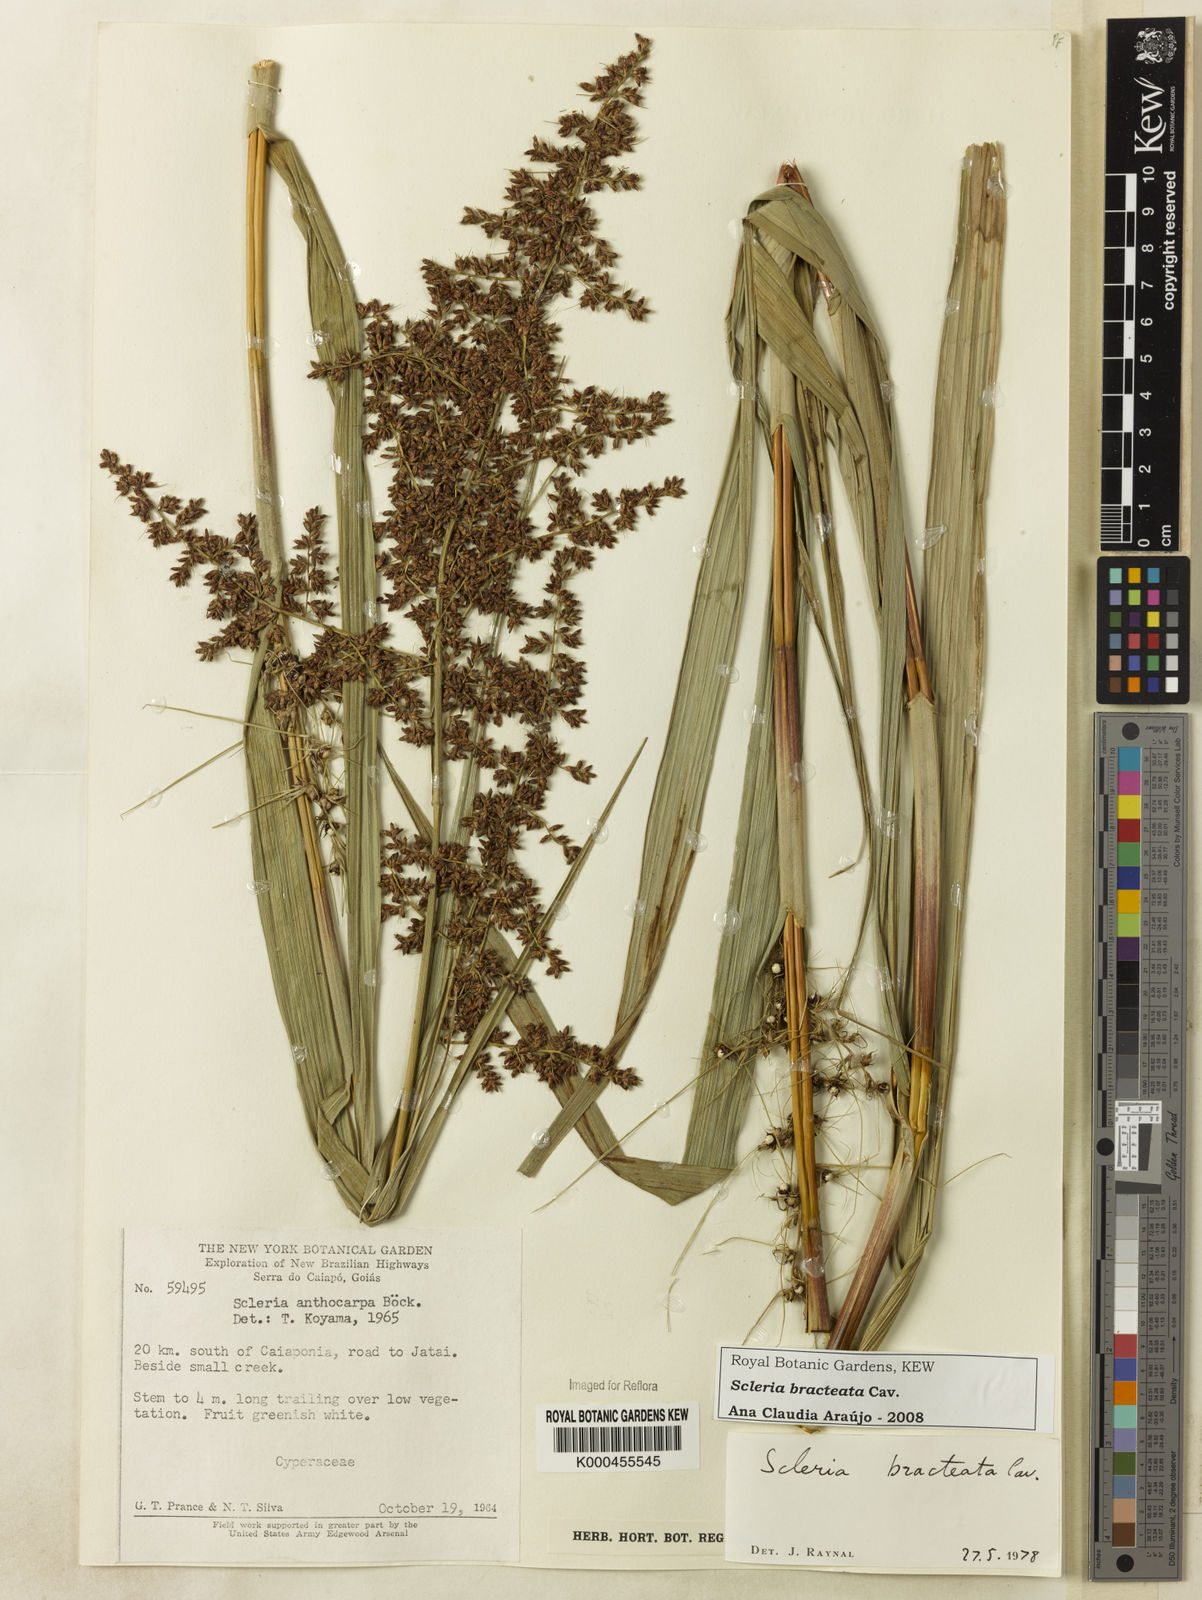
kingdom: Plantae
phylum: Tracheophyta
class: Liliopsida
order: Poales
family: Cyperaceae
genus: Scleria
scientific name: Scleria bracteata
